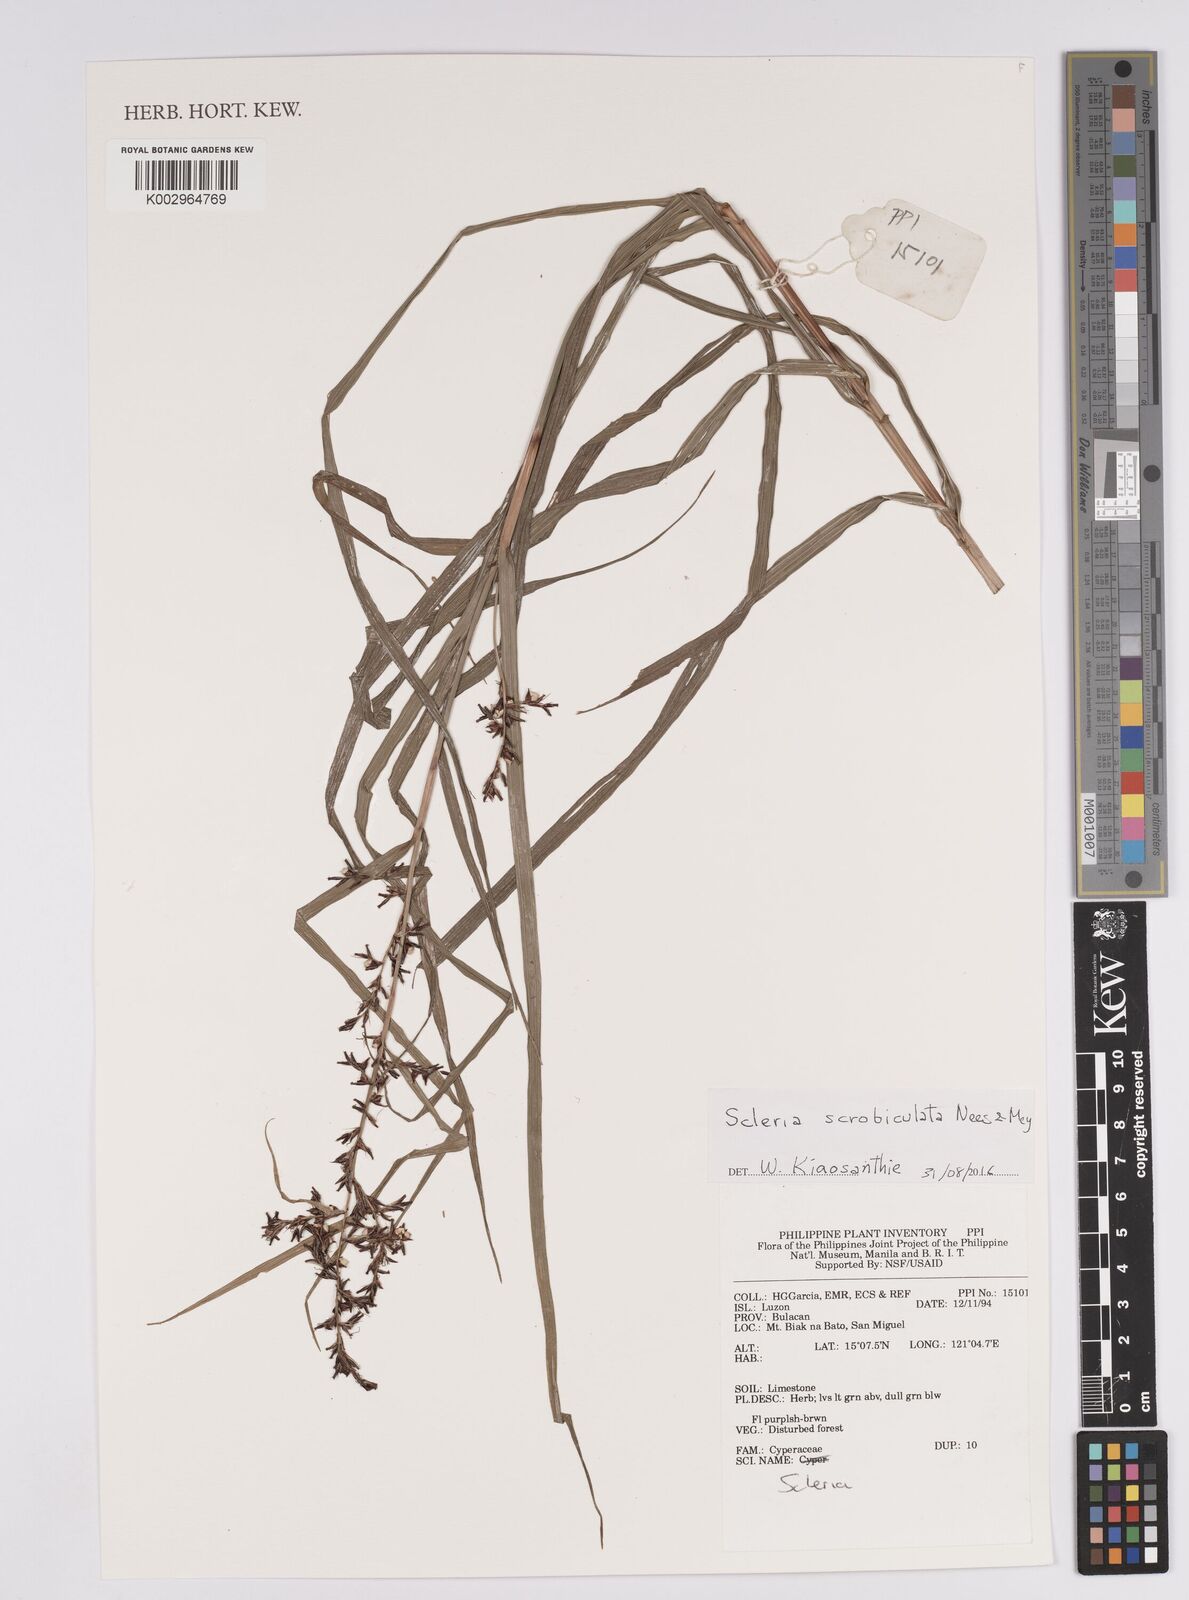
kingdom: Plantae
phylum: Tracheophyta
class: Liliopsida
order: Poales
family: Cyperaceae
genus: Scleria
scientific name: Scleria scrobiculata
